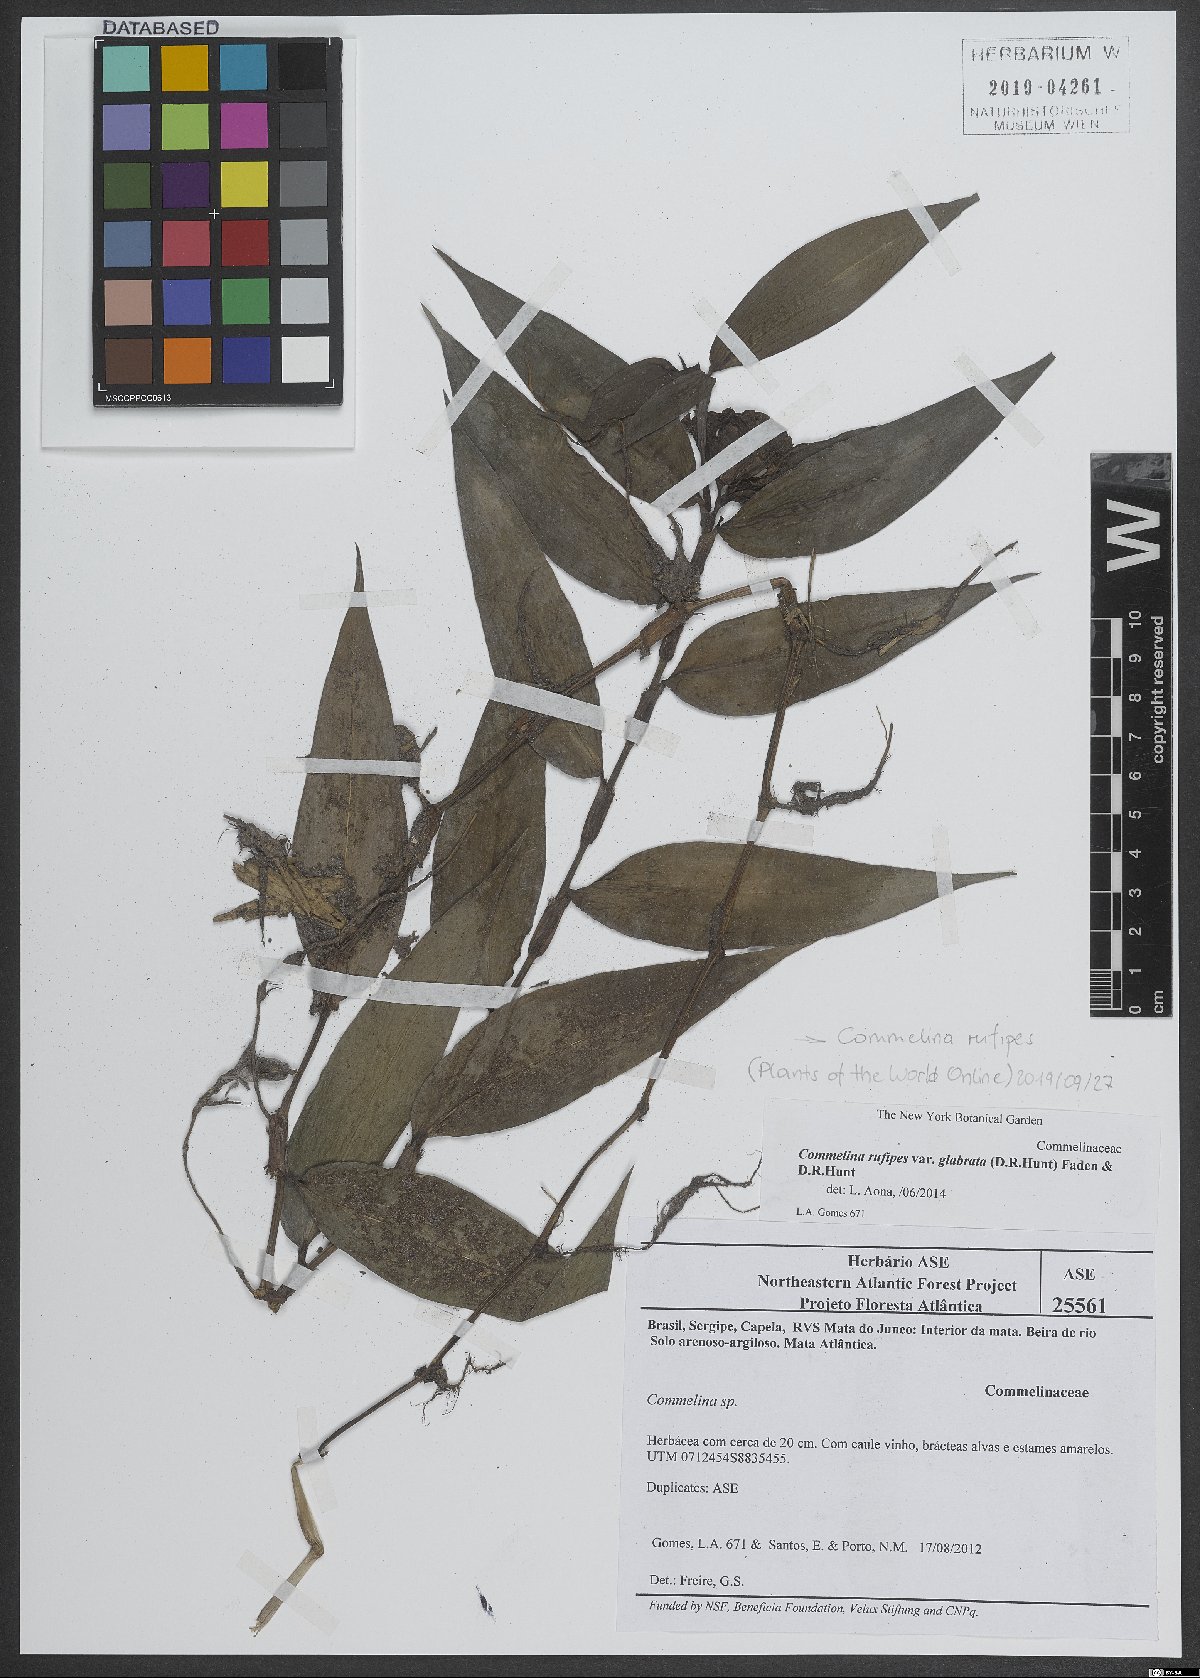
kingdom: Plantae
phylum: Tracheophyta
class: Liliopsida
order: Commelinales
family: Commelinaceae
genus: Commelina
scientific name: Commelina rufipes
